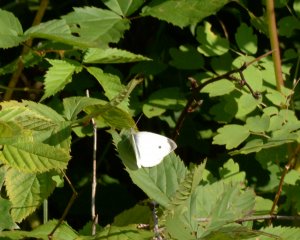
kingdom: Animalia
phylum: Arthropoda
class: Insecta
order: Lepidoptera
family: Pieridae
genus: Pieris
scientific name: Pieris rapae
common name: Cabbage White
